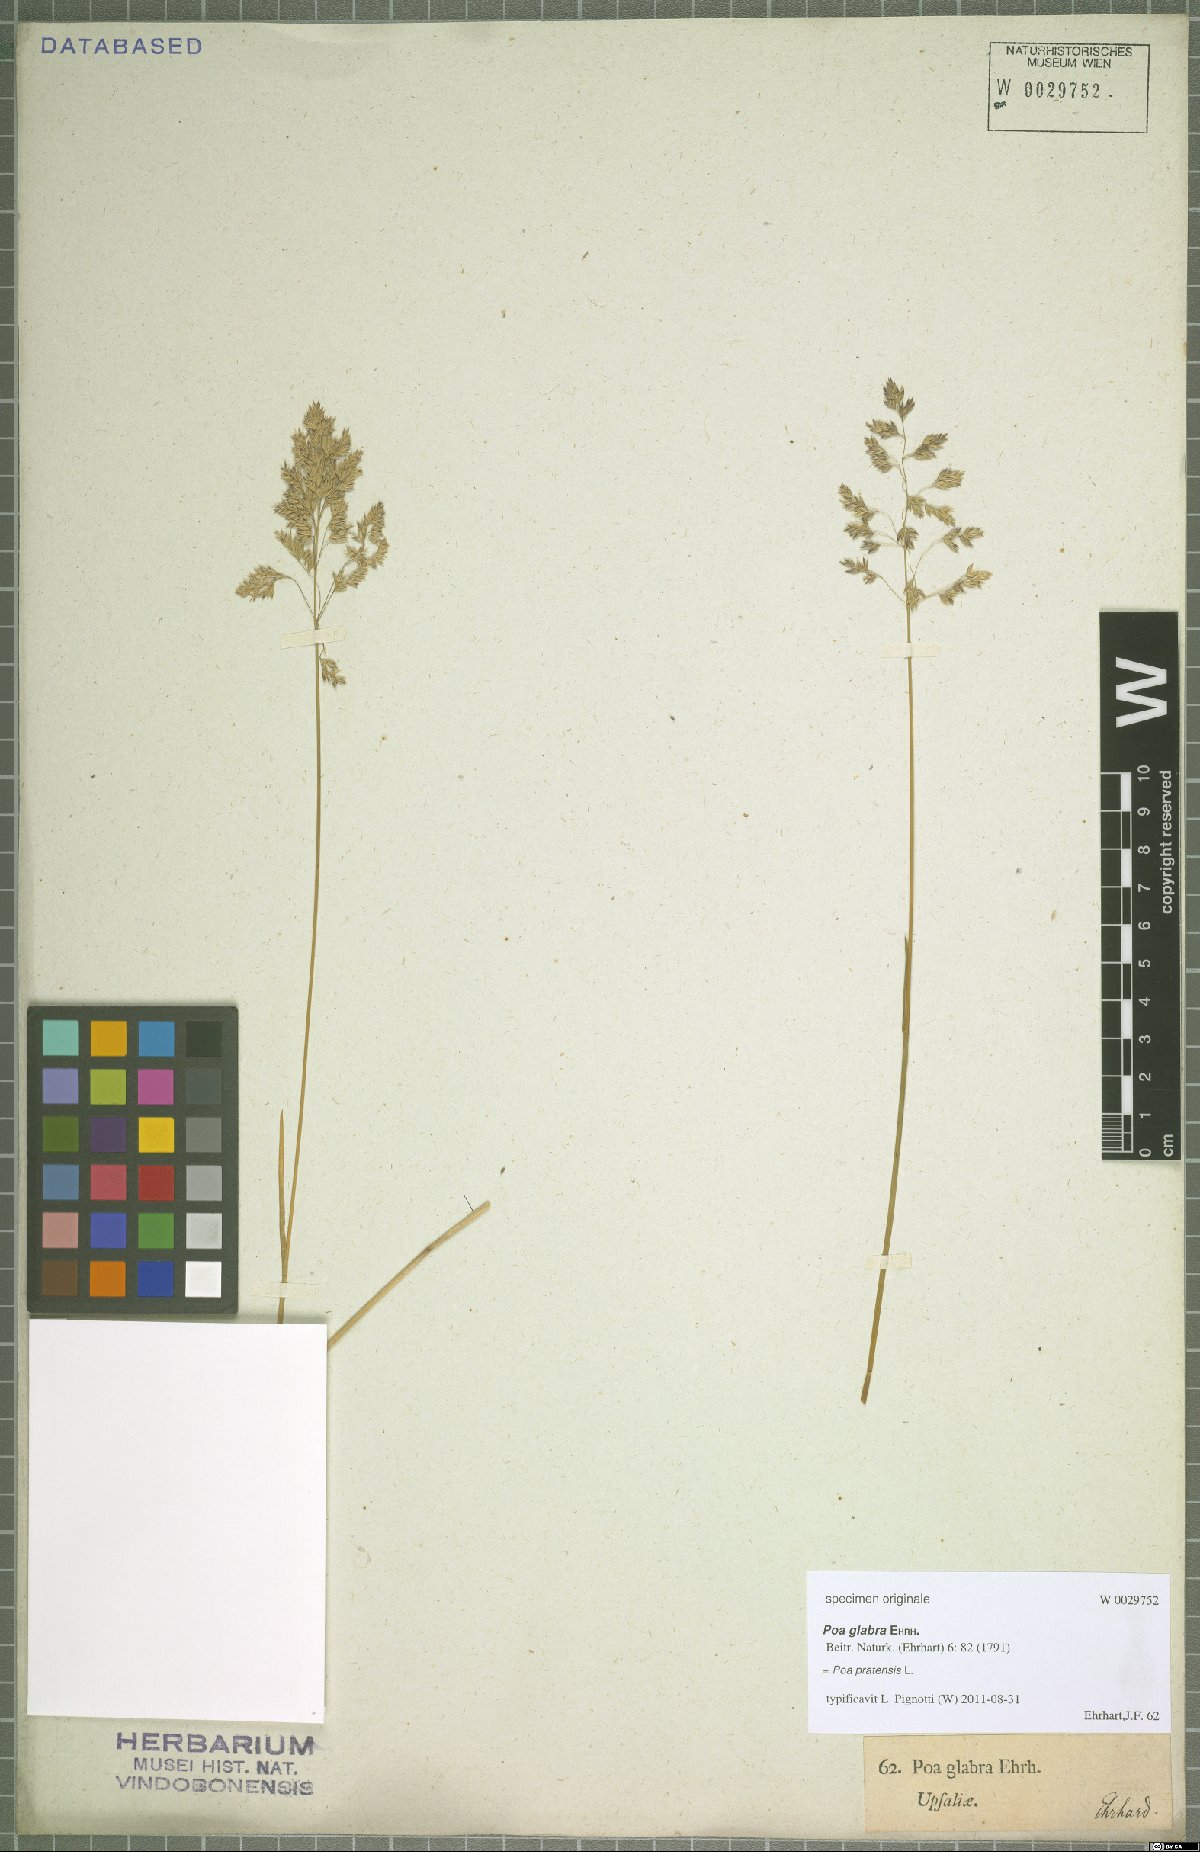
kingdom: Plantae
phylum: Tracheophyta
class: Liliopsida
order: Poales
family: Poaceae
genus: Poa
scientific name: Poa pratensis
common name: Kentucky bluegrass
